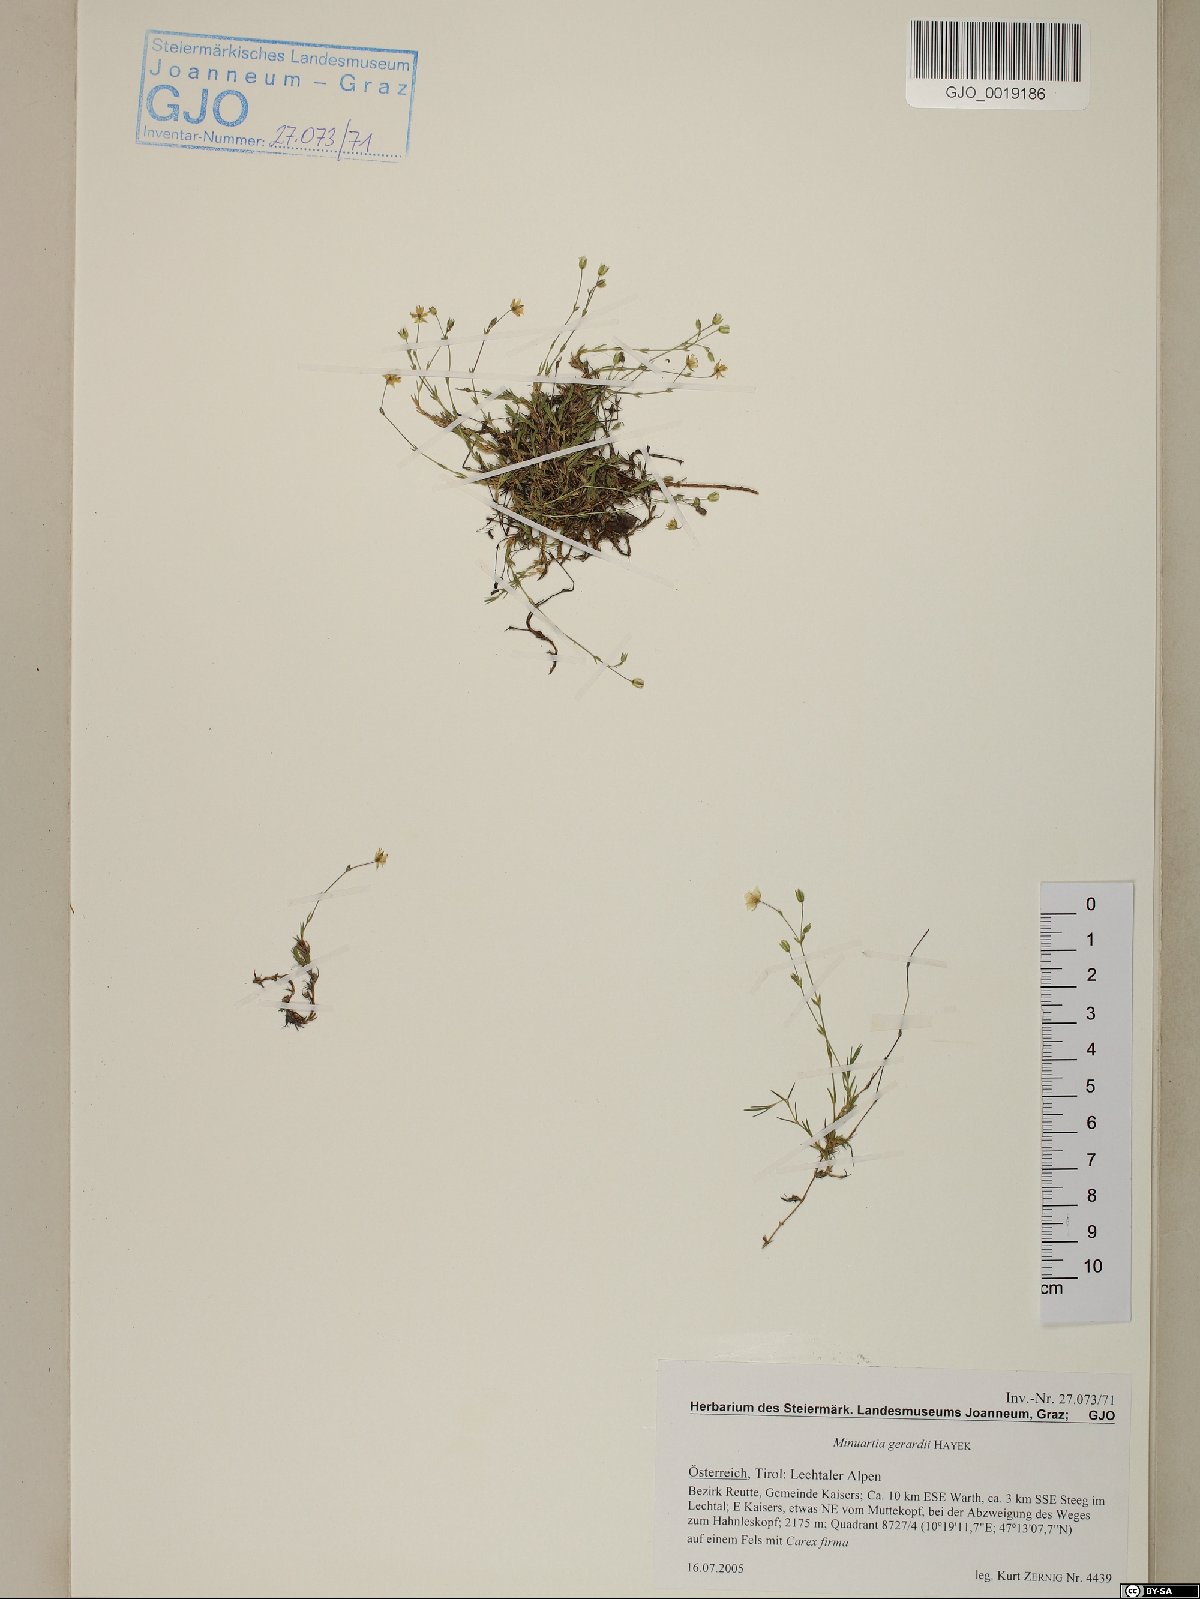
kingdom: Plantae
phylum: Tracheophyta
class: Magnoliopsida
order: Caryophyllales
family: Caryophyllaceae
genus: Sabulina
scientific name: Sabulina verna
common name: Spring sandwort
